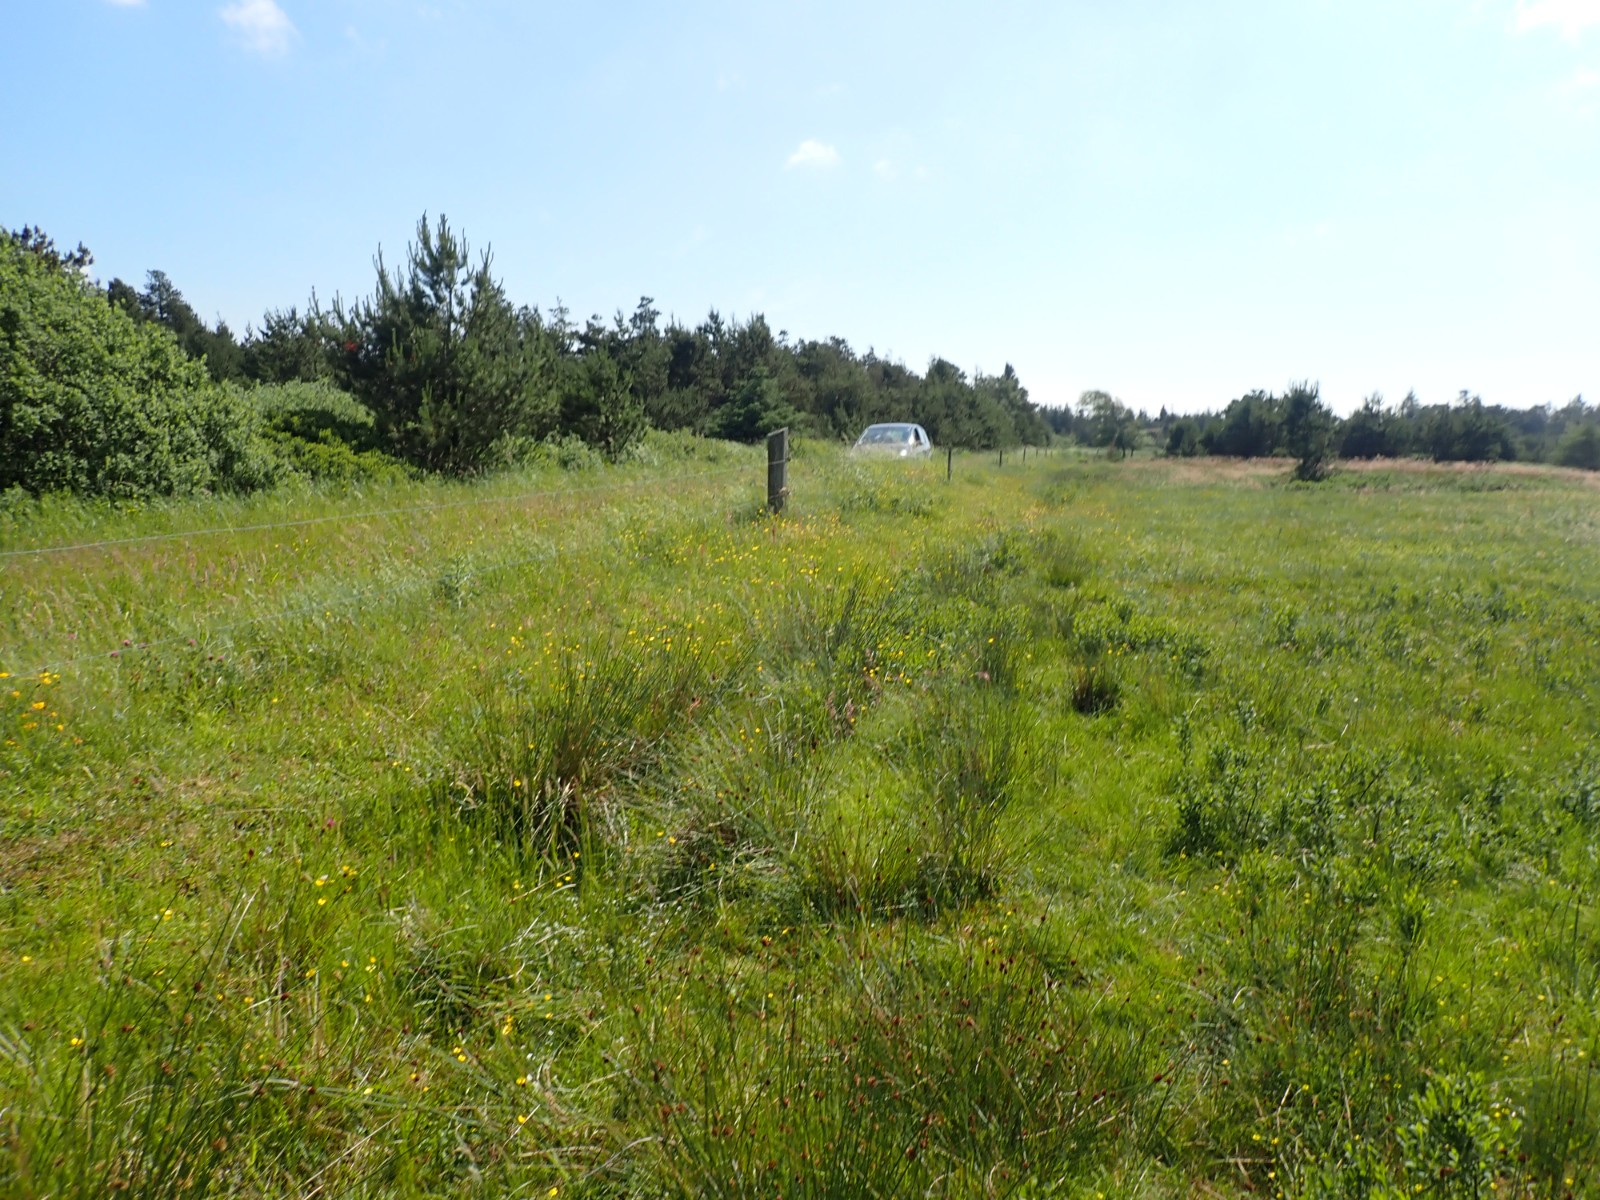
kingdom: Fungi
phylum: Basidiomycota
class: Agaricomycetes
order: Agaricales
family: Hygrophoraceae
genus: Hygrocybe
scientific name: Hygrocybe acutoconica
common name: spidspuklet vokshat
